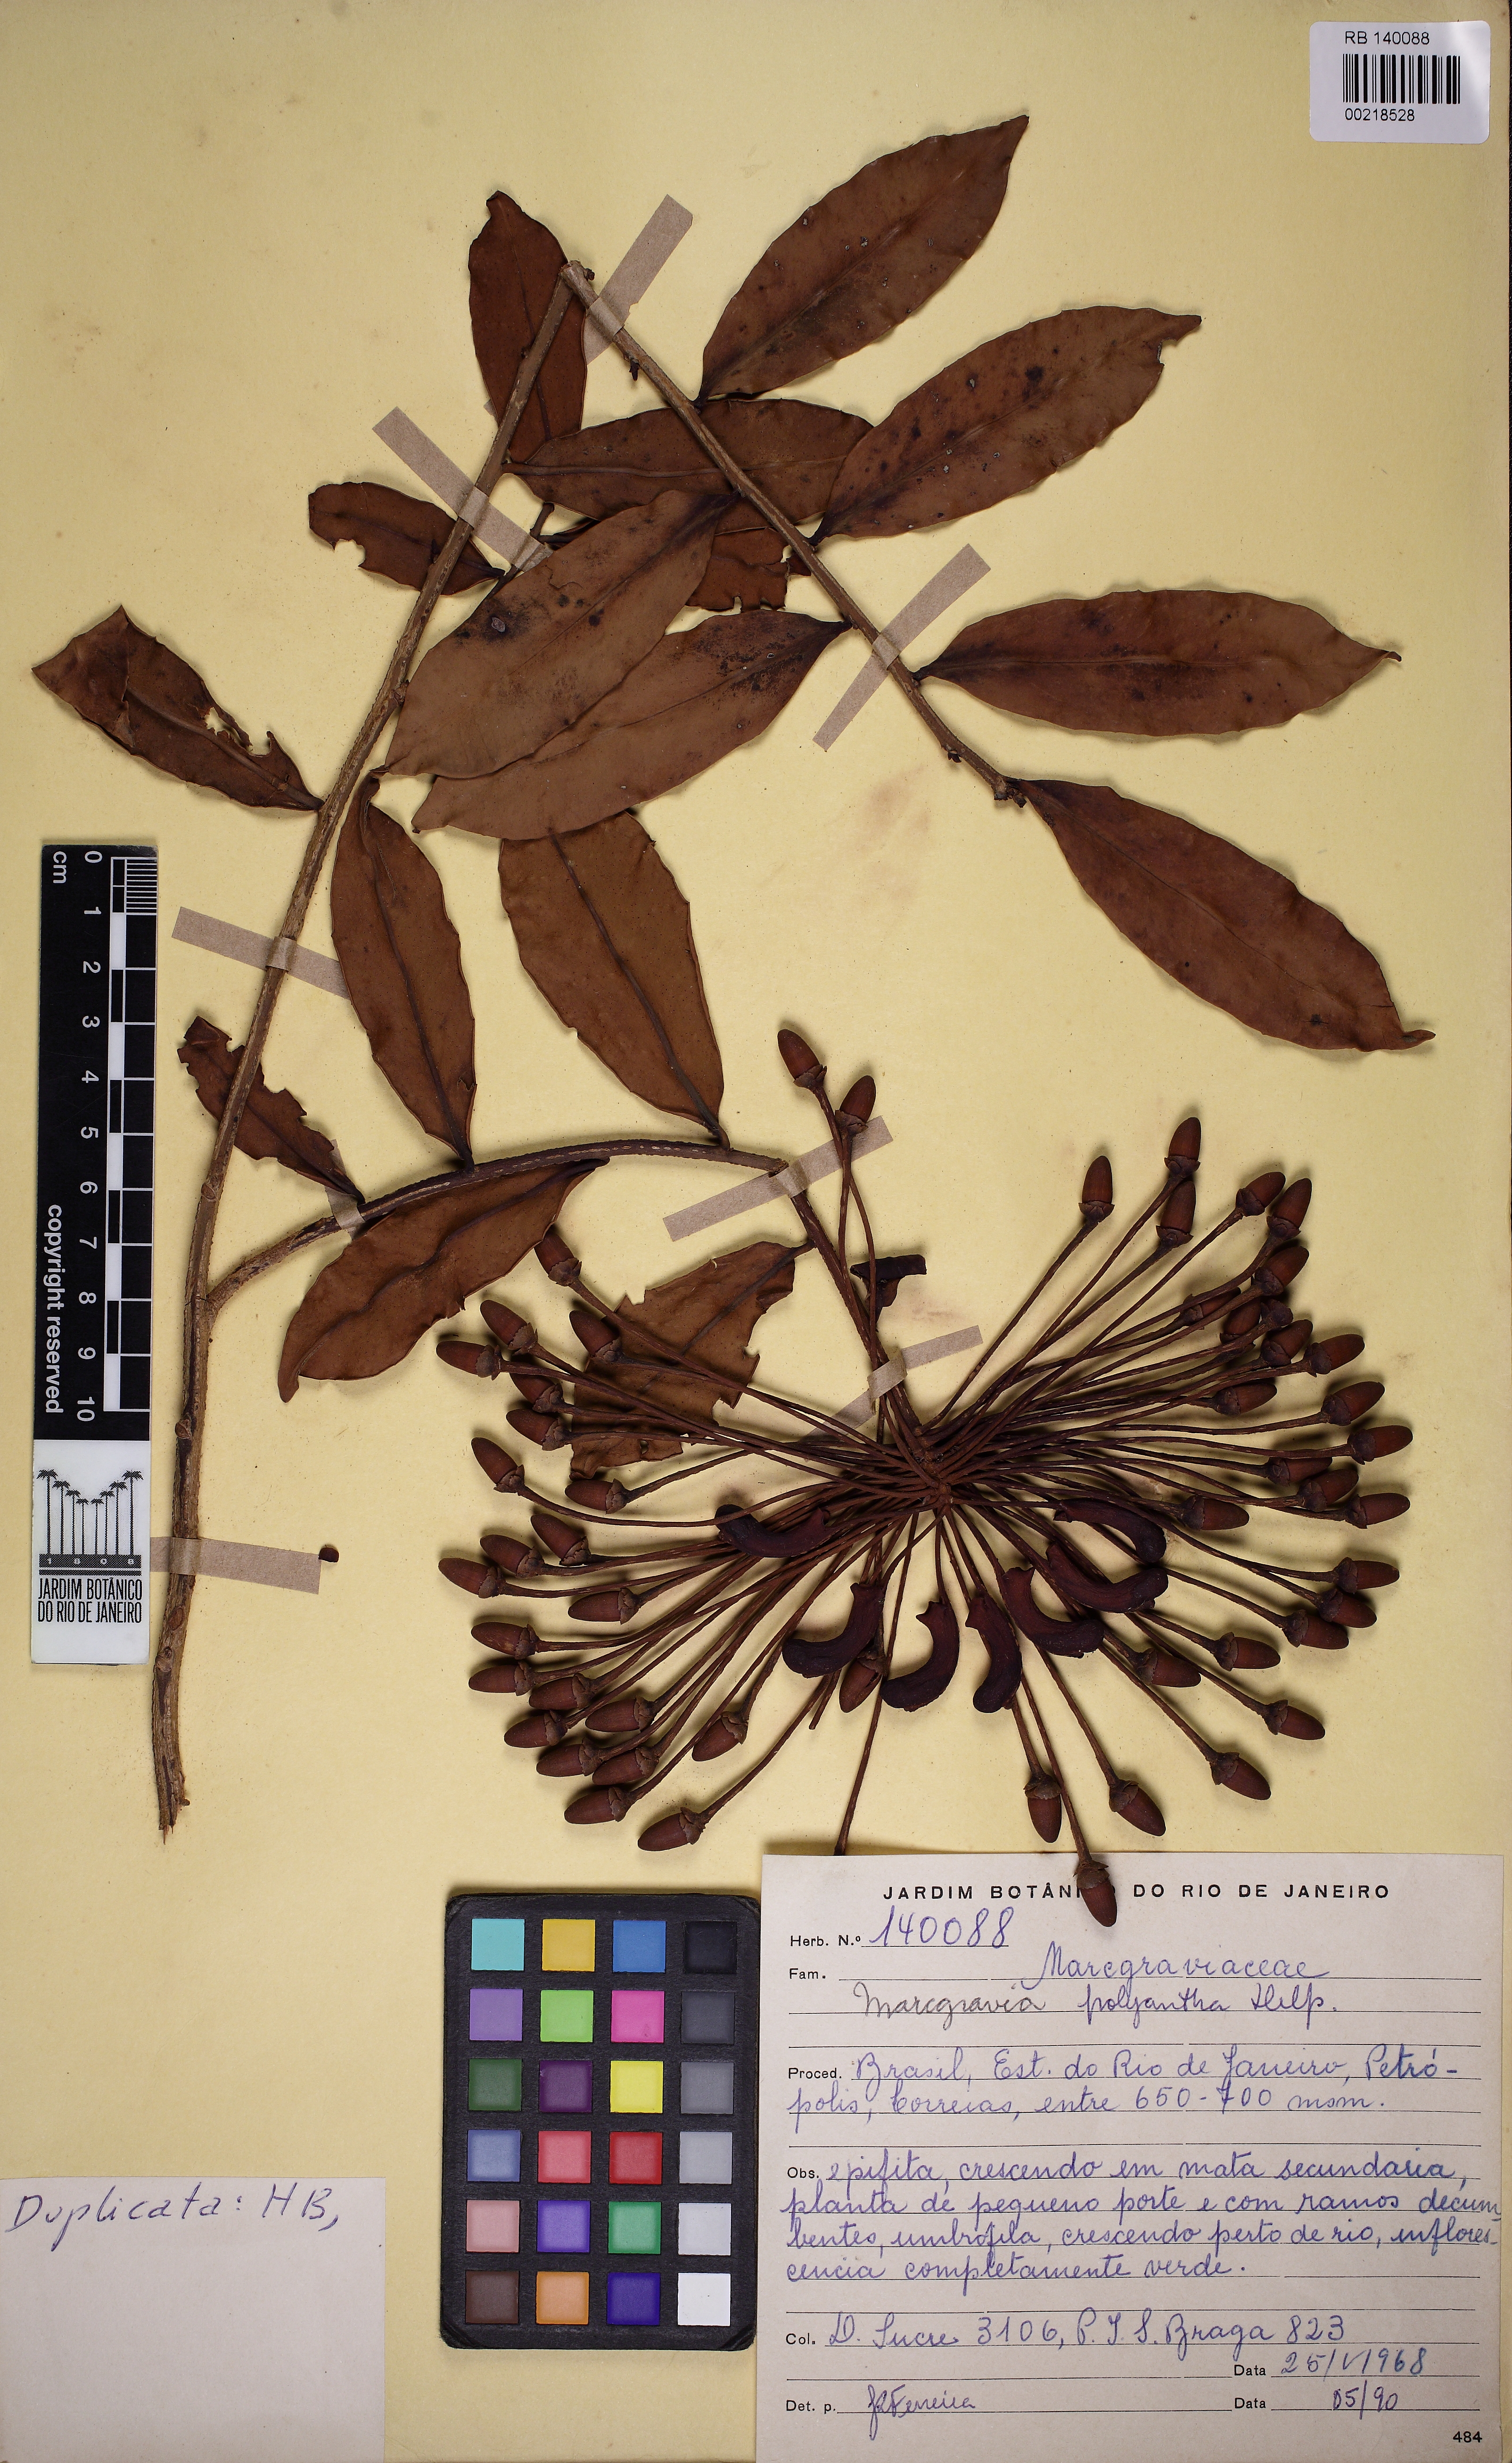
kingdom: Plantae
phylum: Tracheophyta
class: Magnoliopsida
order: Ericales
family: Marcgraviaceae
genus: Marcgravia
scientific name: Marcgravia polyantha
